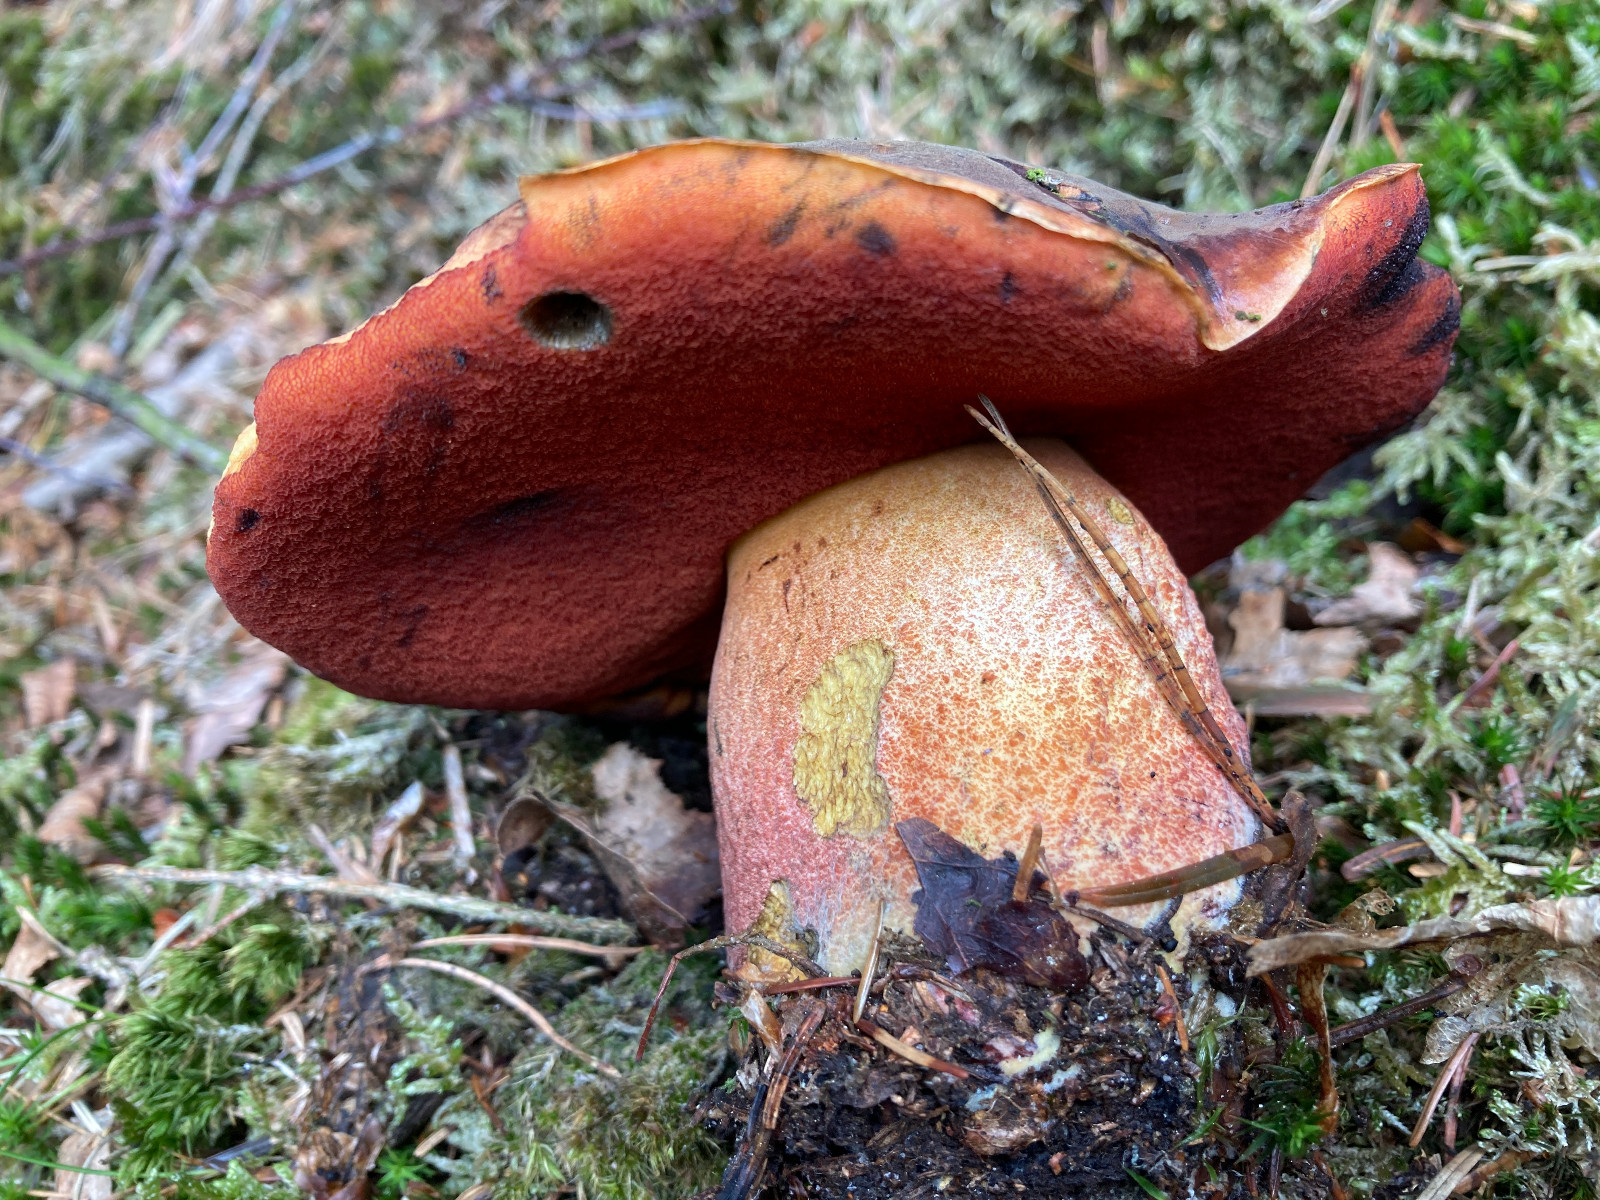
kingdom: Fungi
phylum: Basidiomycota
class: Agaricomycetes
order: Boletales
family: Boletaceae
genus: Neoboletus
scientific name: Neoboletus erythropus
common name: punktstokket indigorørhat
